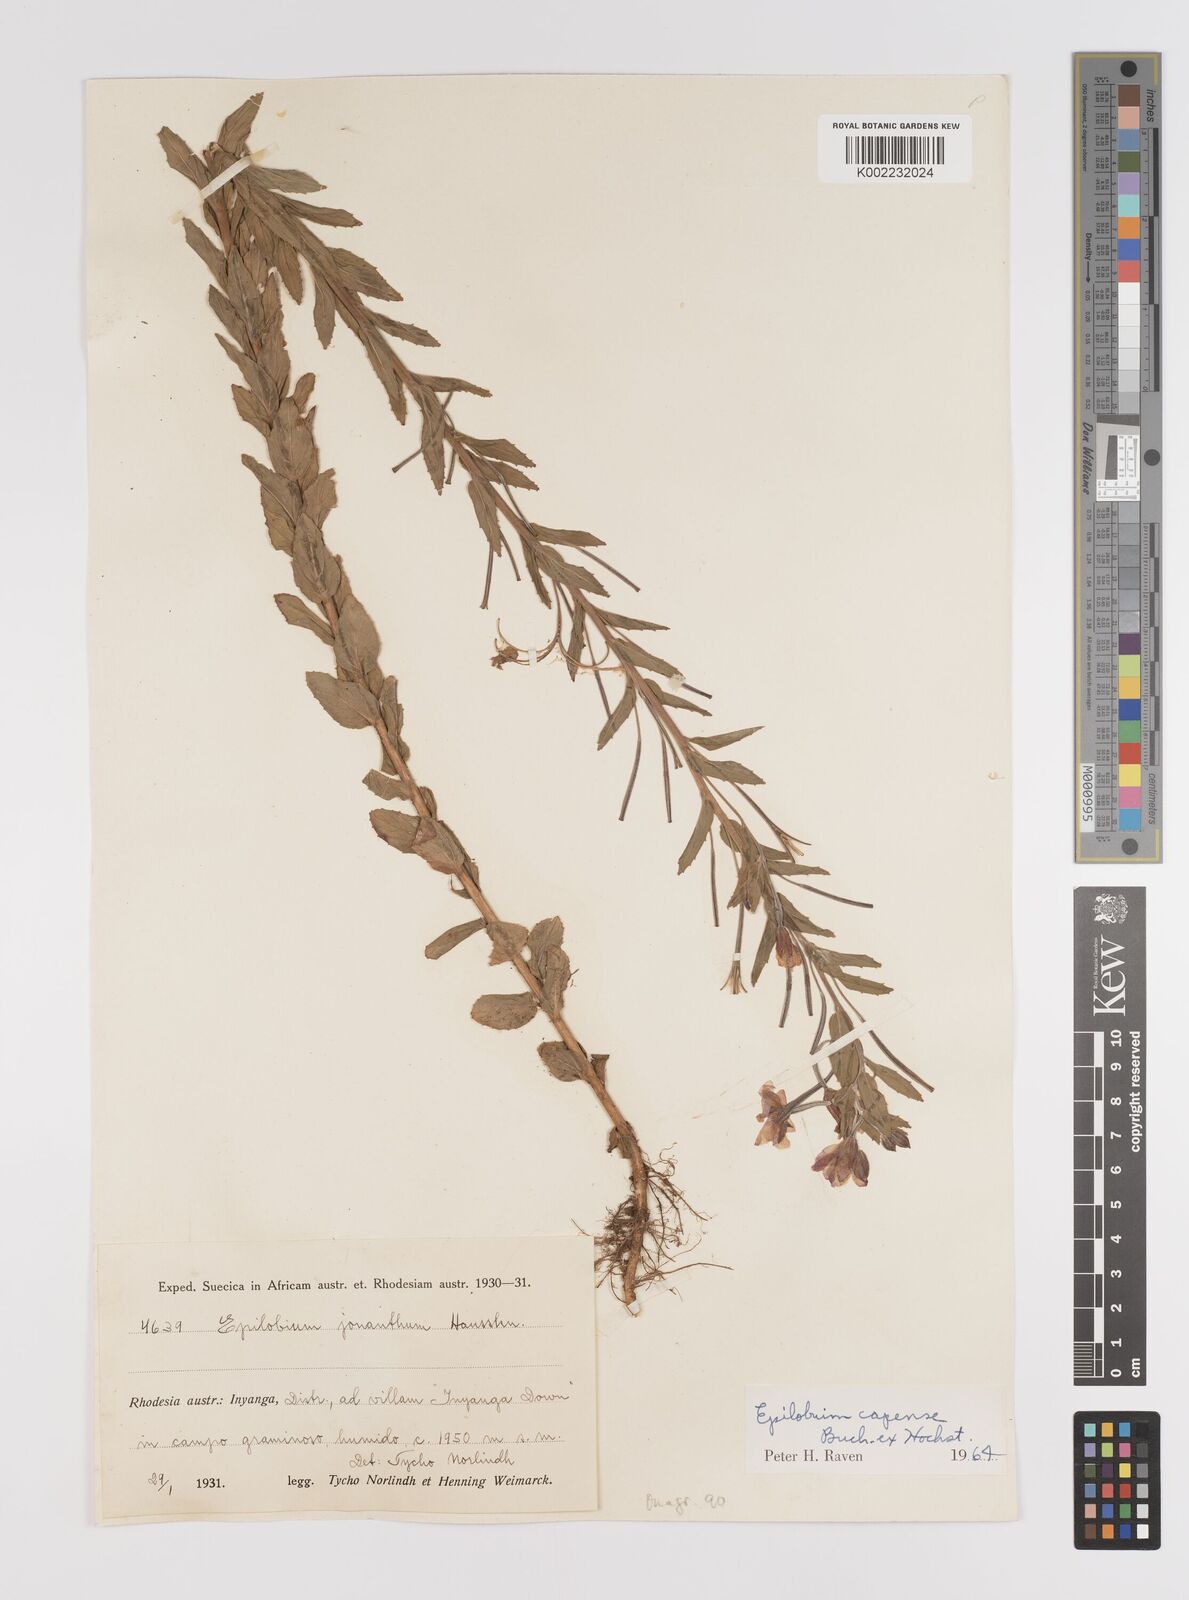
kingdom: Plantae
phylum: Tracheophyta
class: Magnoliopsida
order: Myrtales
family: Onagraceae
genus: Epilobium
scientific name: Epilobium capense
